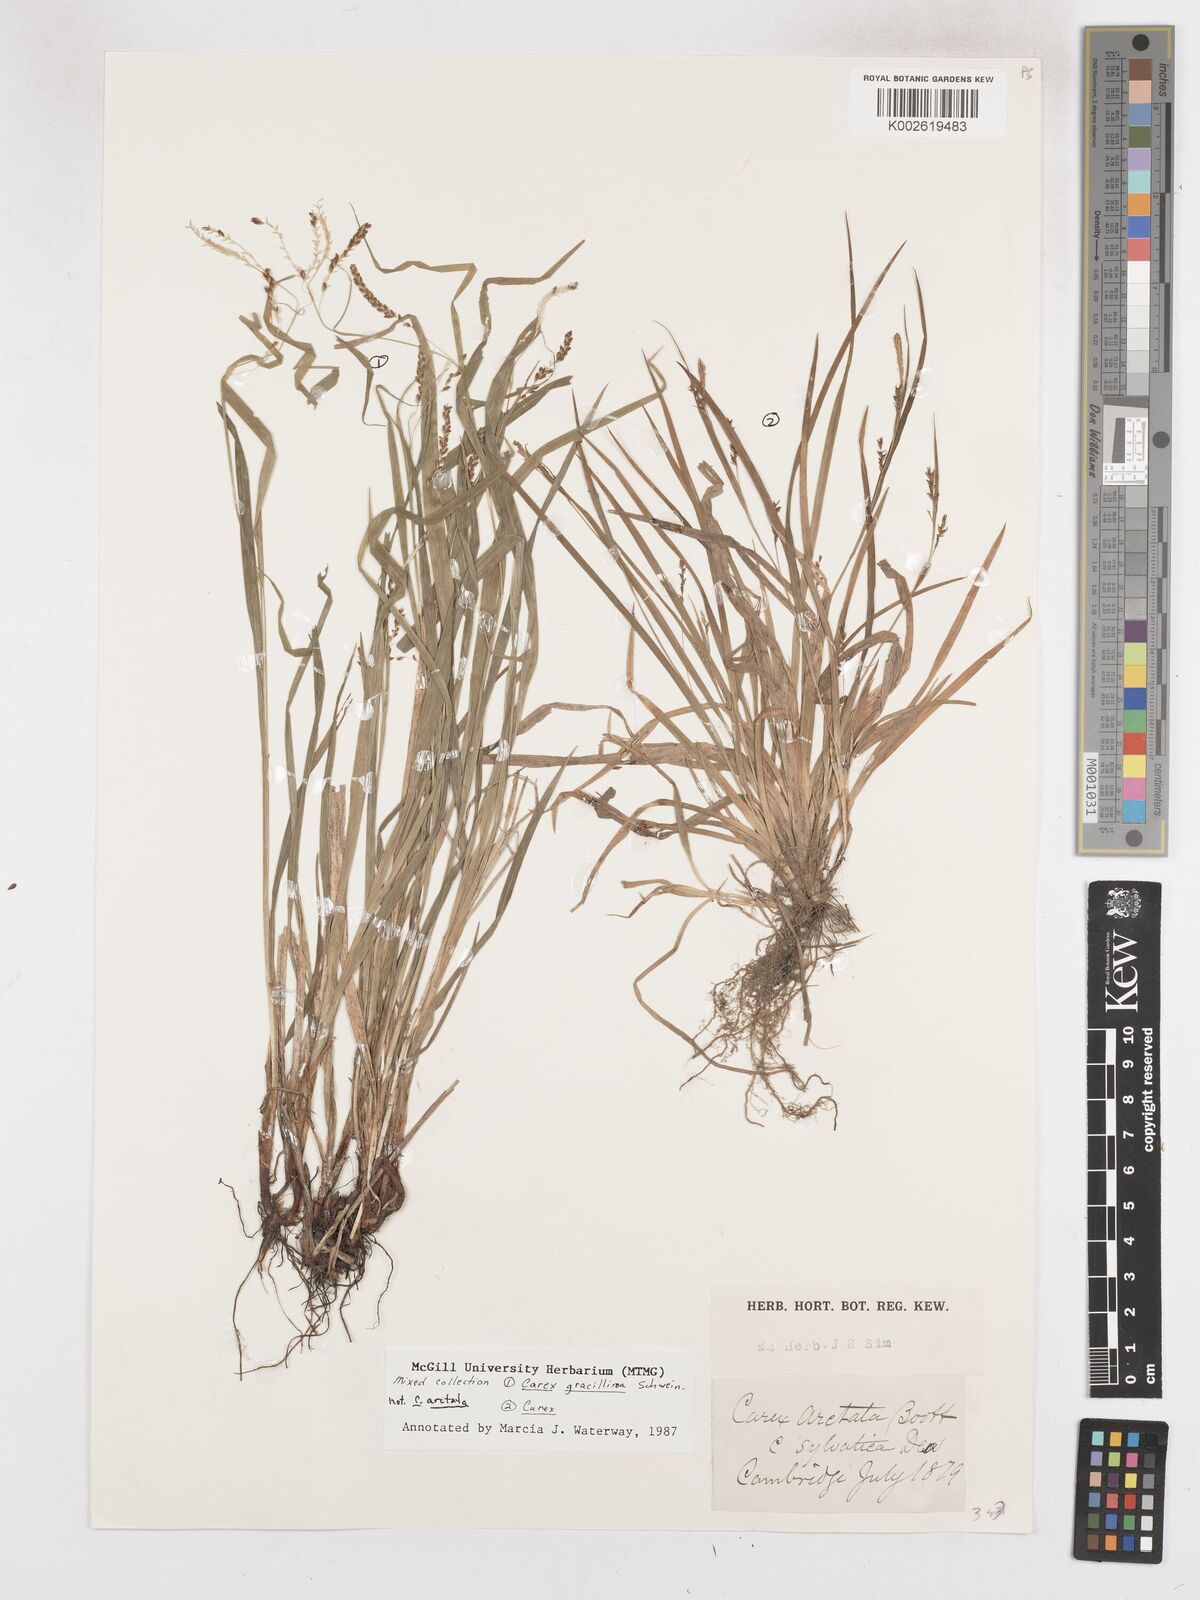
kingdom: Plantae
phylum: Tracheophyta
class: Liliopsida
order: Poales
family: Cyperaceae
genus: Carex
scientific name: Carex gracillima
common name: Graceful sedge
